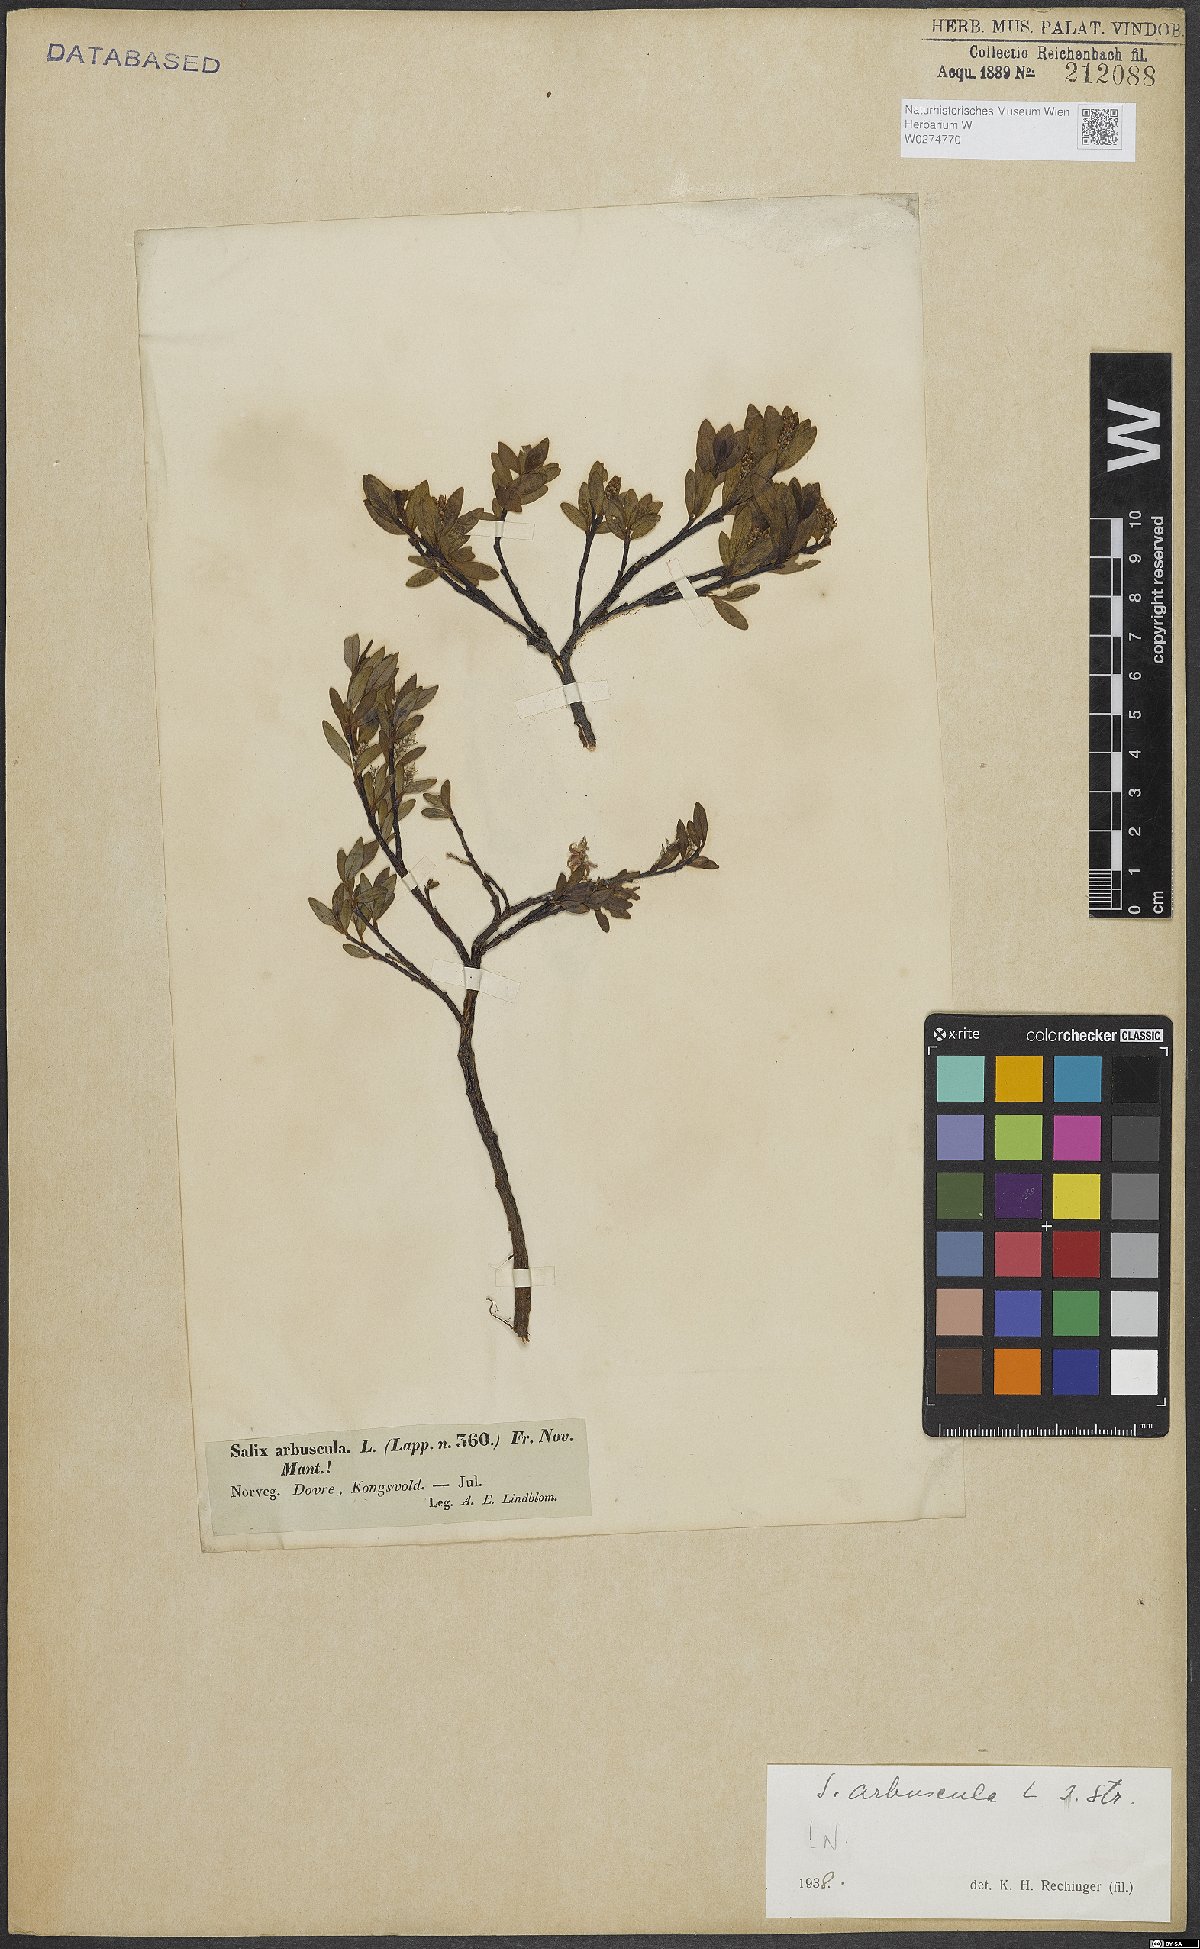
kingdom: Plantae
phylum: Tracheophyta
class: Magnoliopsida
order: Malpighiales
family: Salicaceae
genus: Salix
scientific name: Salix arbuscula
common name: Mountain willow
